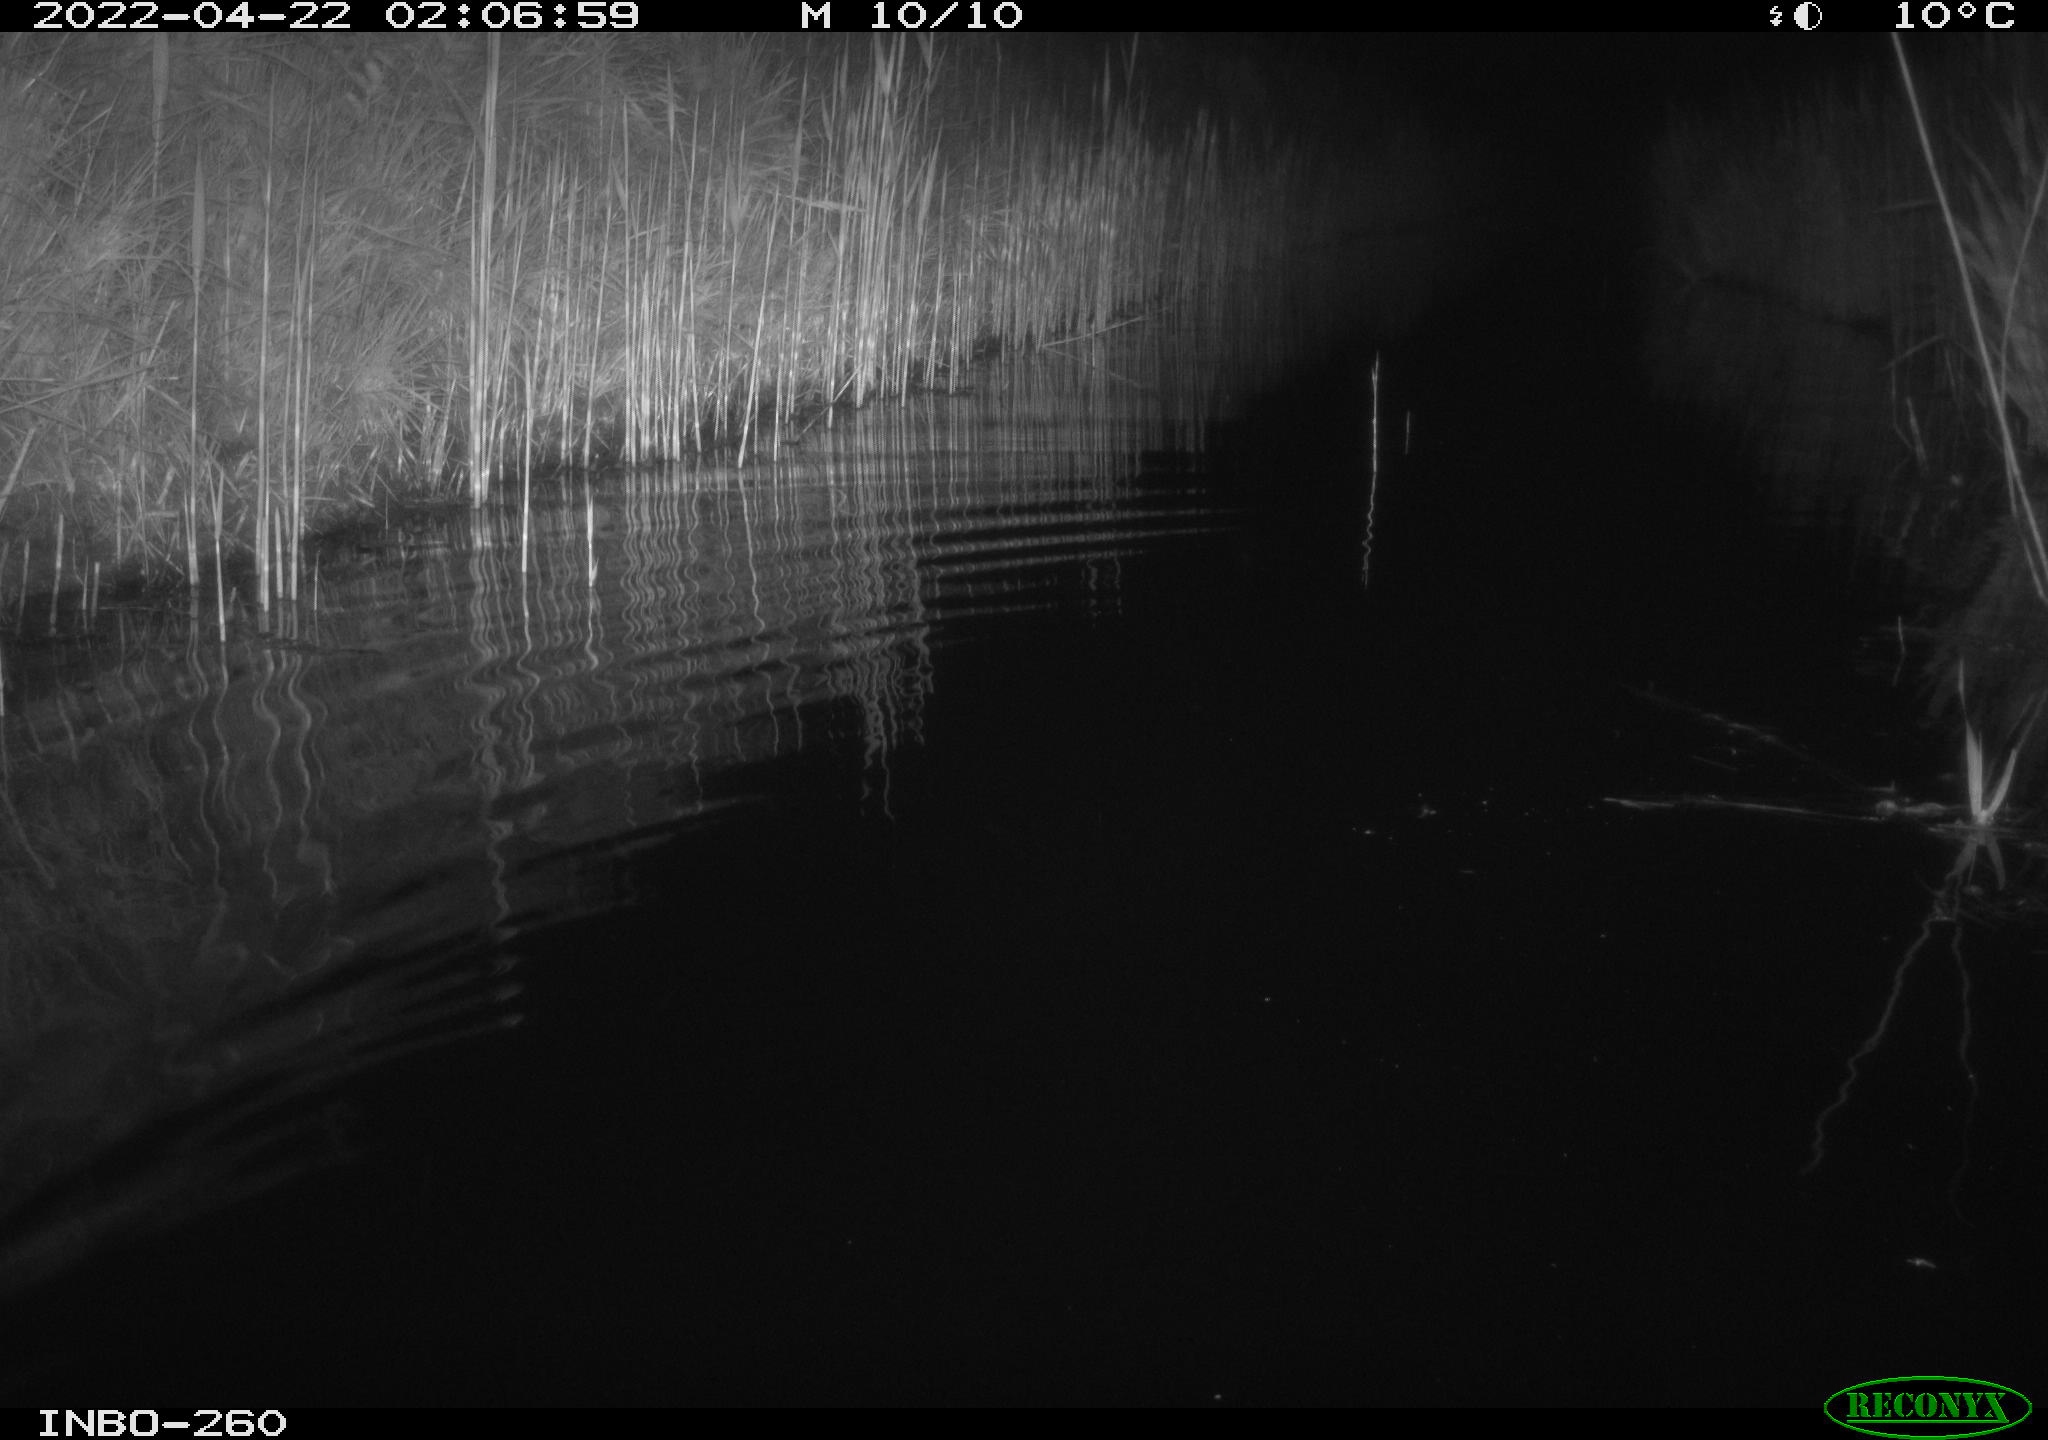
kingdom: Animalia
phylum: Chordata
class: Mammalia
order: Rodentia
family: Cricetidae
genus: Ondatra
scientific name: Ondatra zibethicus
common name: Muskrat
